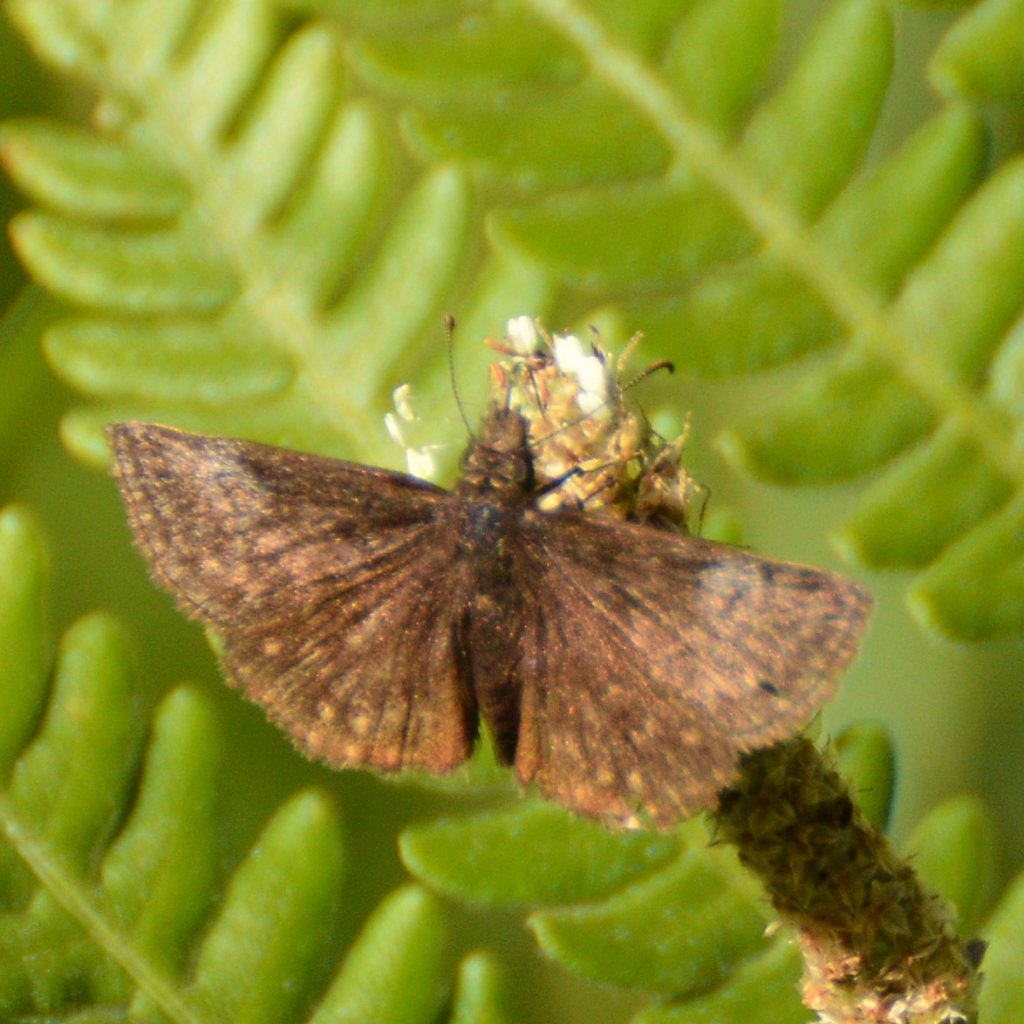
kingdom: Animalia
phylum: Arthropoda
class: Insecta
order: Lepidoptera
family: Hesperiidae
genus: Erynnis
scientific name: Erynnis icelus
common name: Dreamy Duskywing
